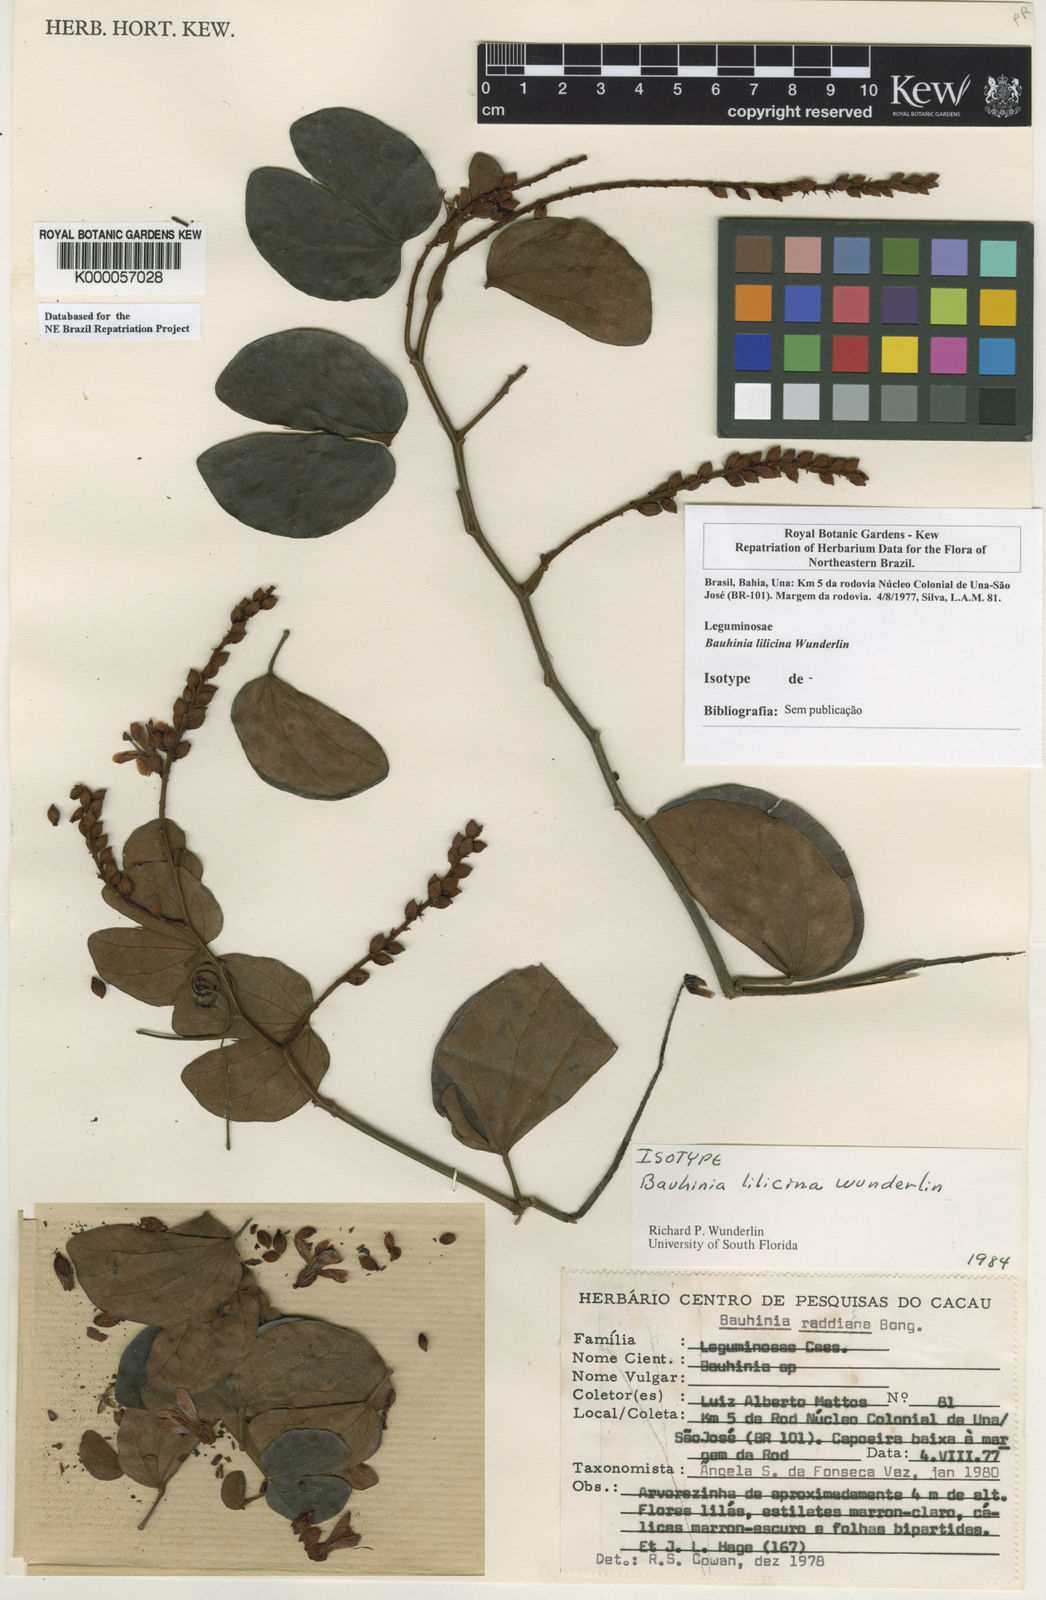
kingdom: Plantae
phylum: Tracheophyta
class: Magnoliopsida
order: Fabales
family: Fabaceae
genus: Schnella
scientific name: Schnella lilacina
